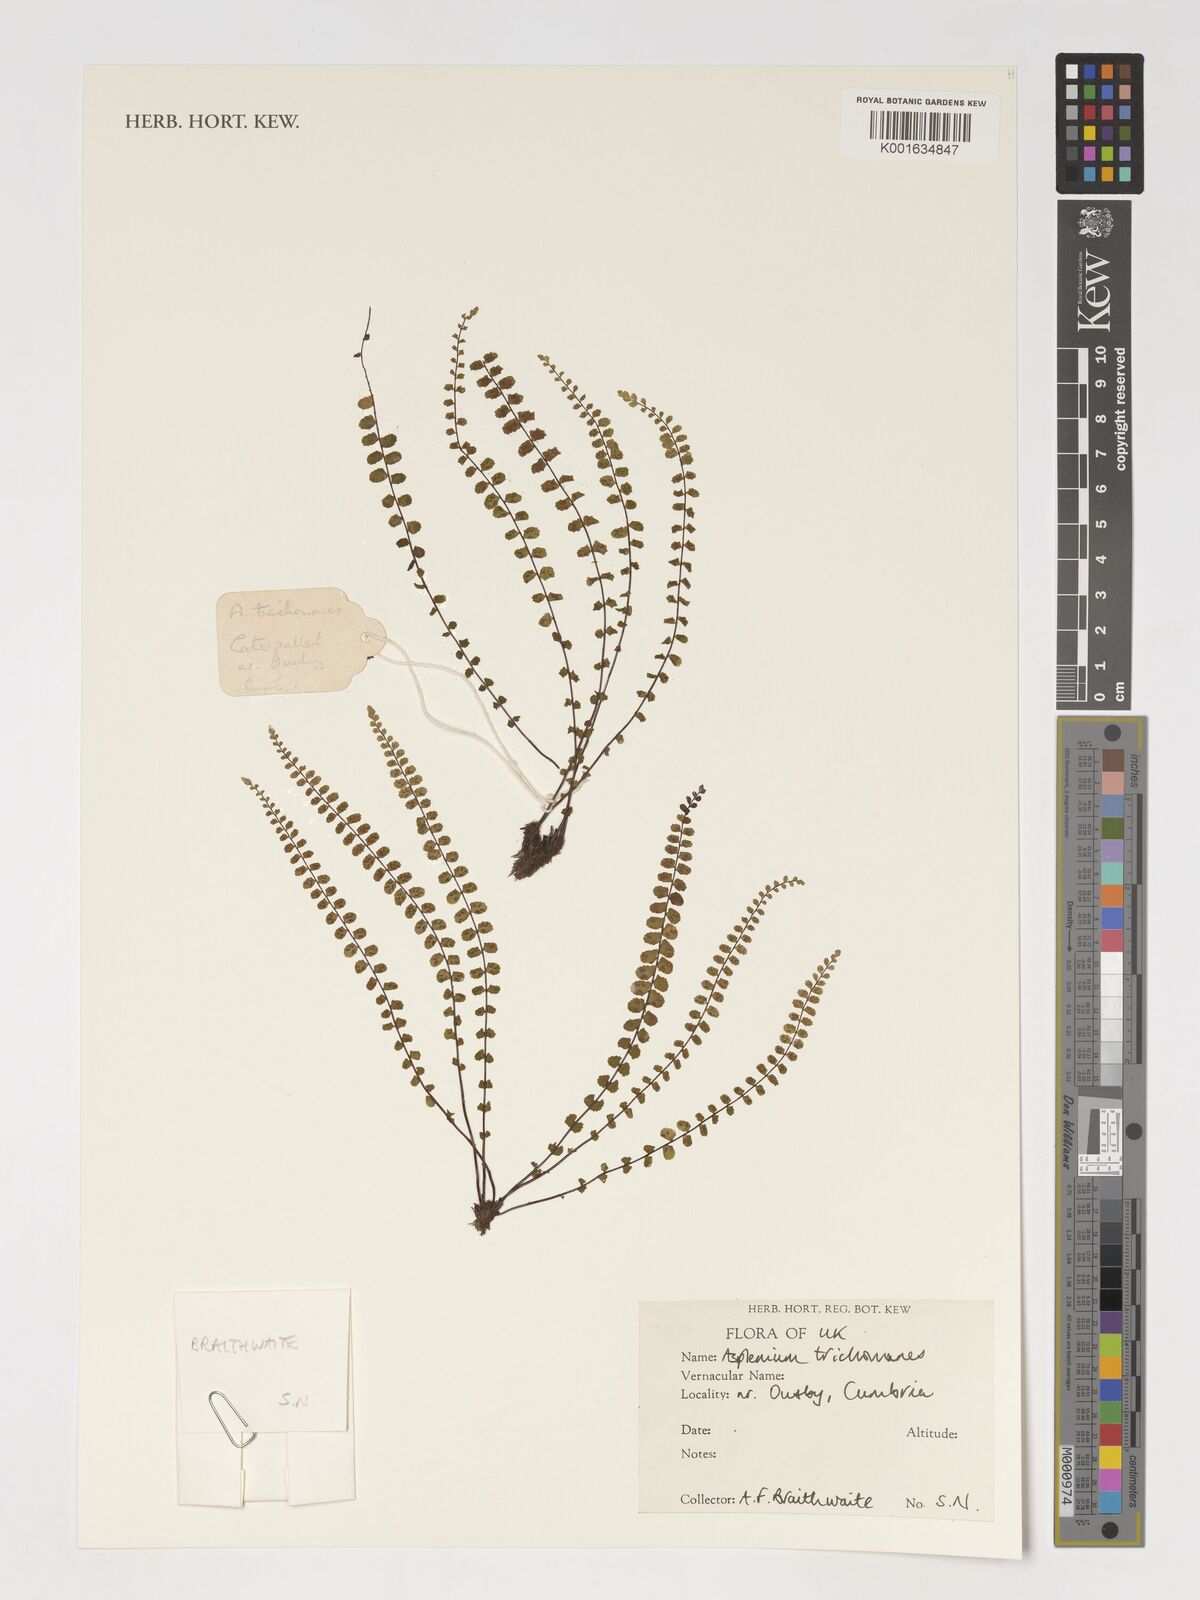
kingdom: Plantae
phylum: Tracheophyta
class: Polypodiopsida
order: Polypodiales
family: Aspleniaceae
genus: Asplenium
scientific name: Asplenium trichomanes
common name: Maidenhair spleenwort
